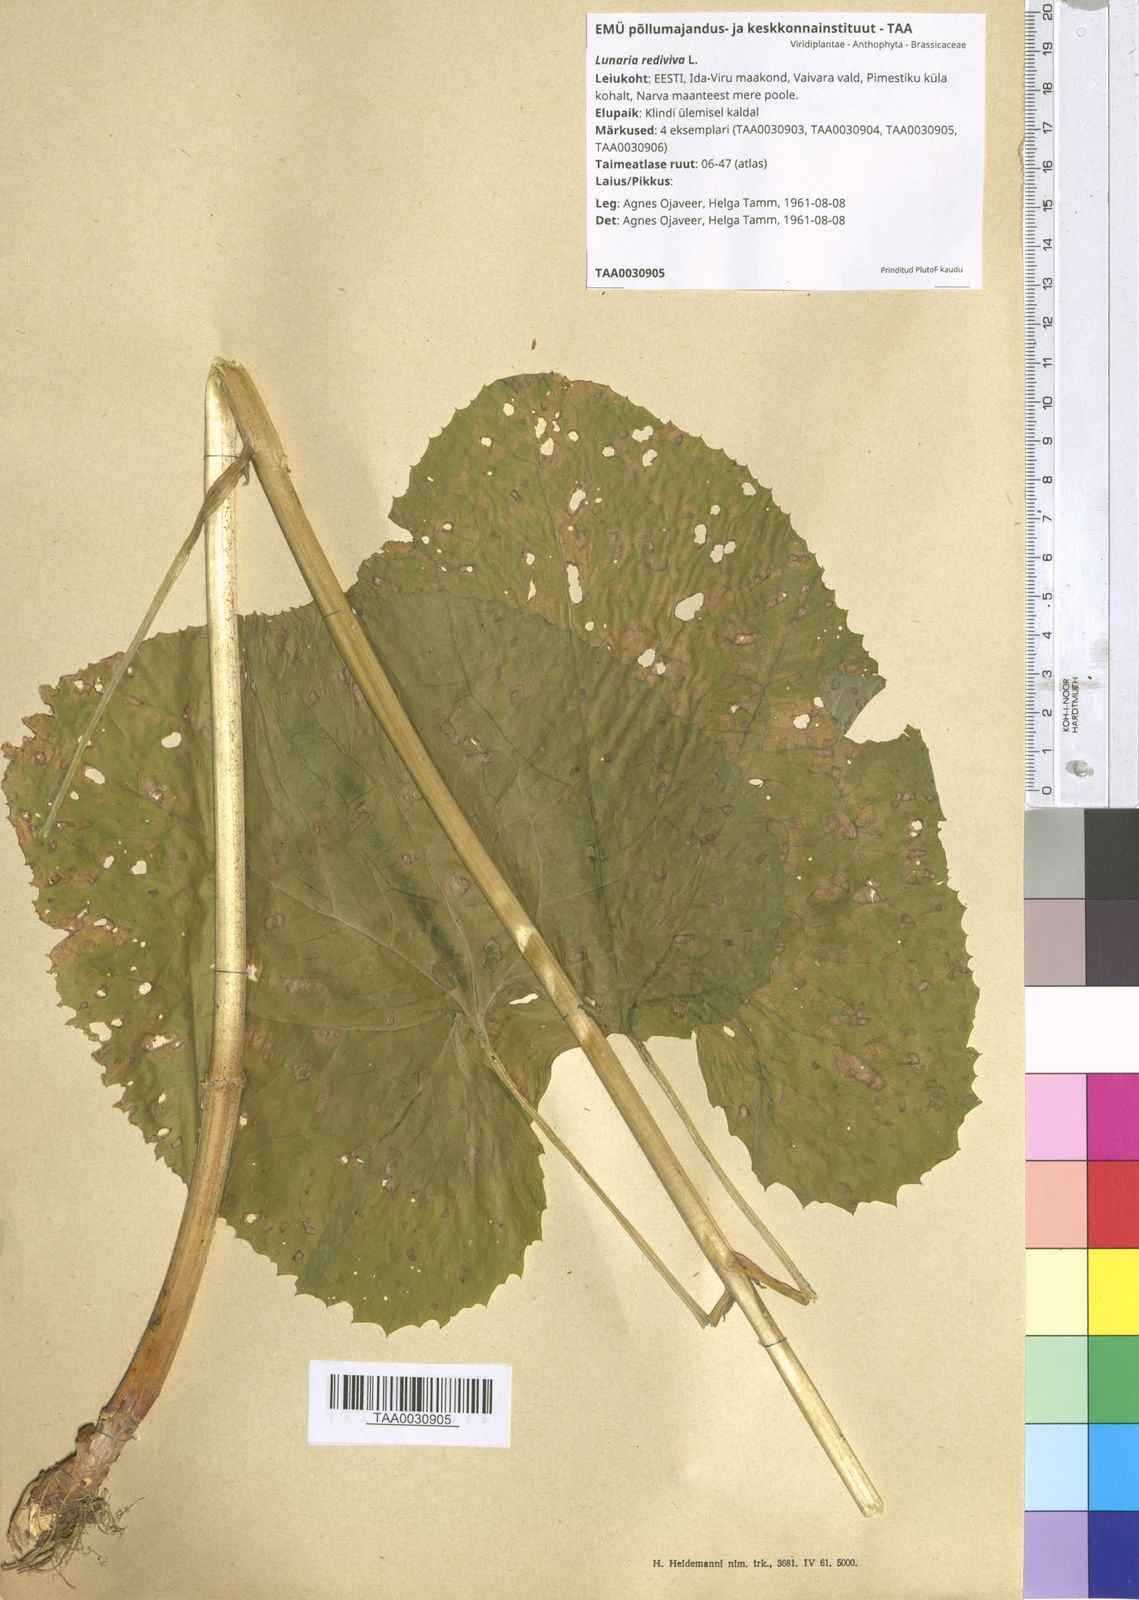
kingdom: Plantae
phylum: Tracheophyta
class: Magnoliopsida
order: Brassicales
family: Brassicaceae
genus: Lunaria
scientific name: Lunaria rediviva
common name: Perennial honesty
